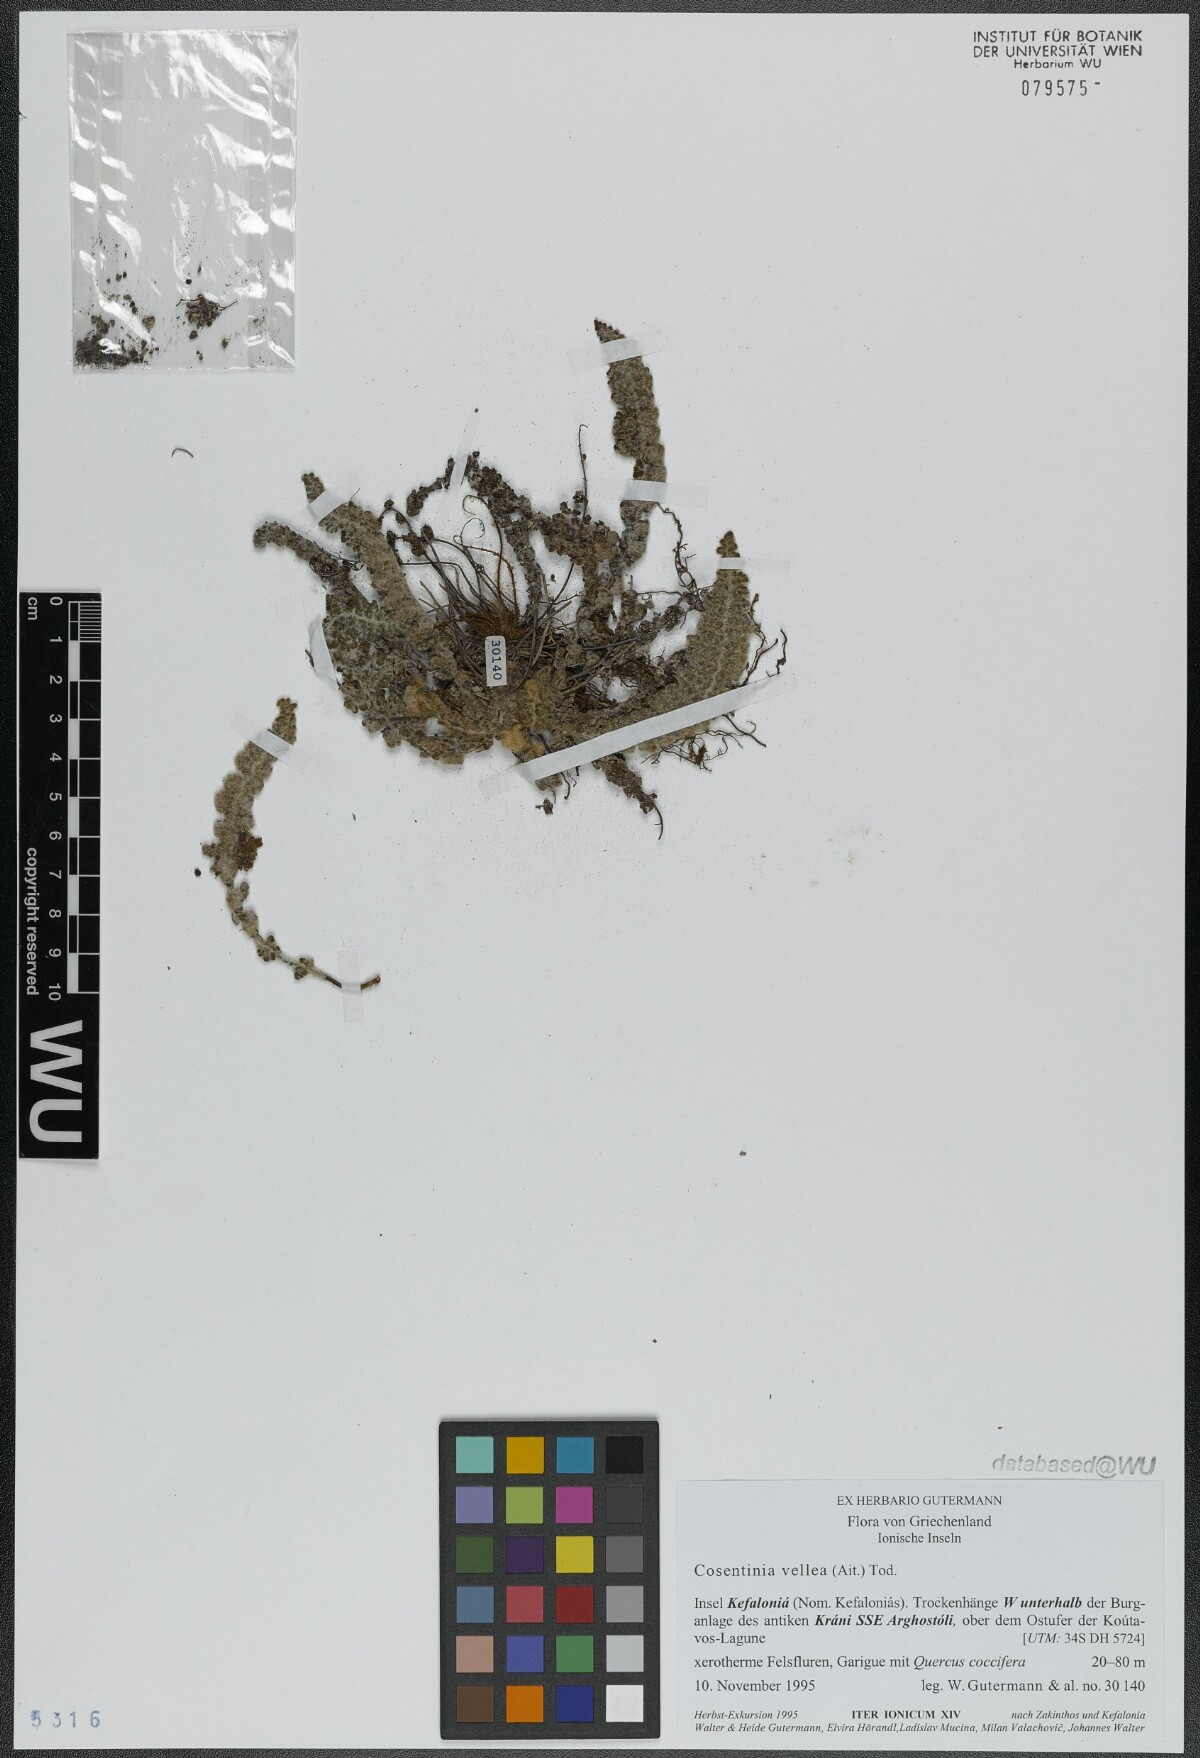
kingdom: Plantae
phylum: Tracheophyta
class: Polypodiopsida
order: Polypodiales
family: Pteridaceae
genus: Cosentinia
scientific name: Cosentinia vellea
